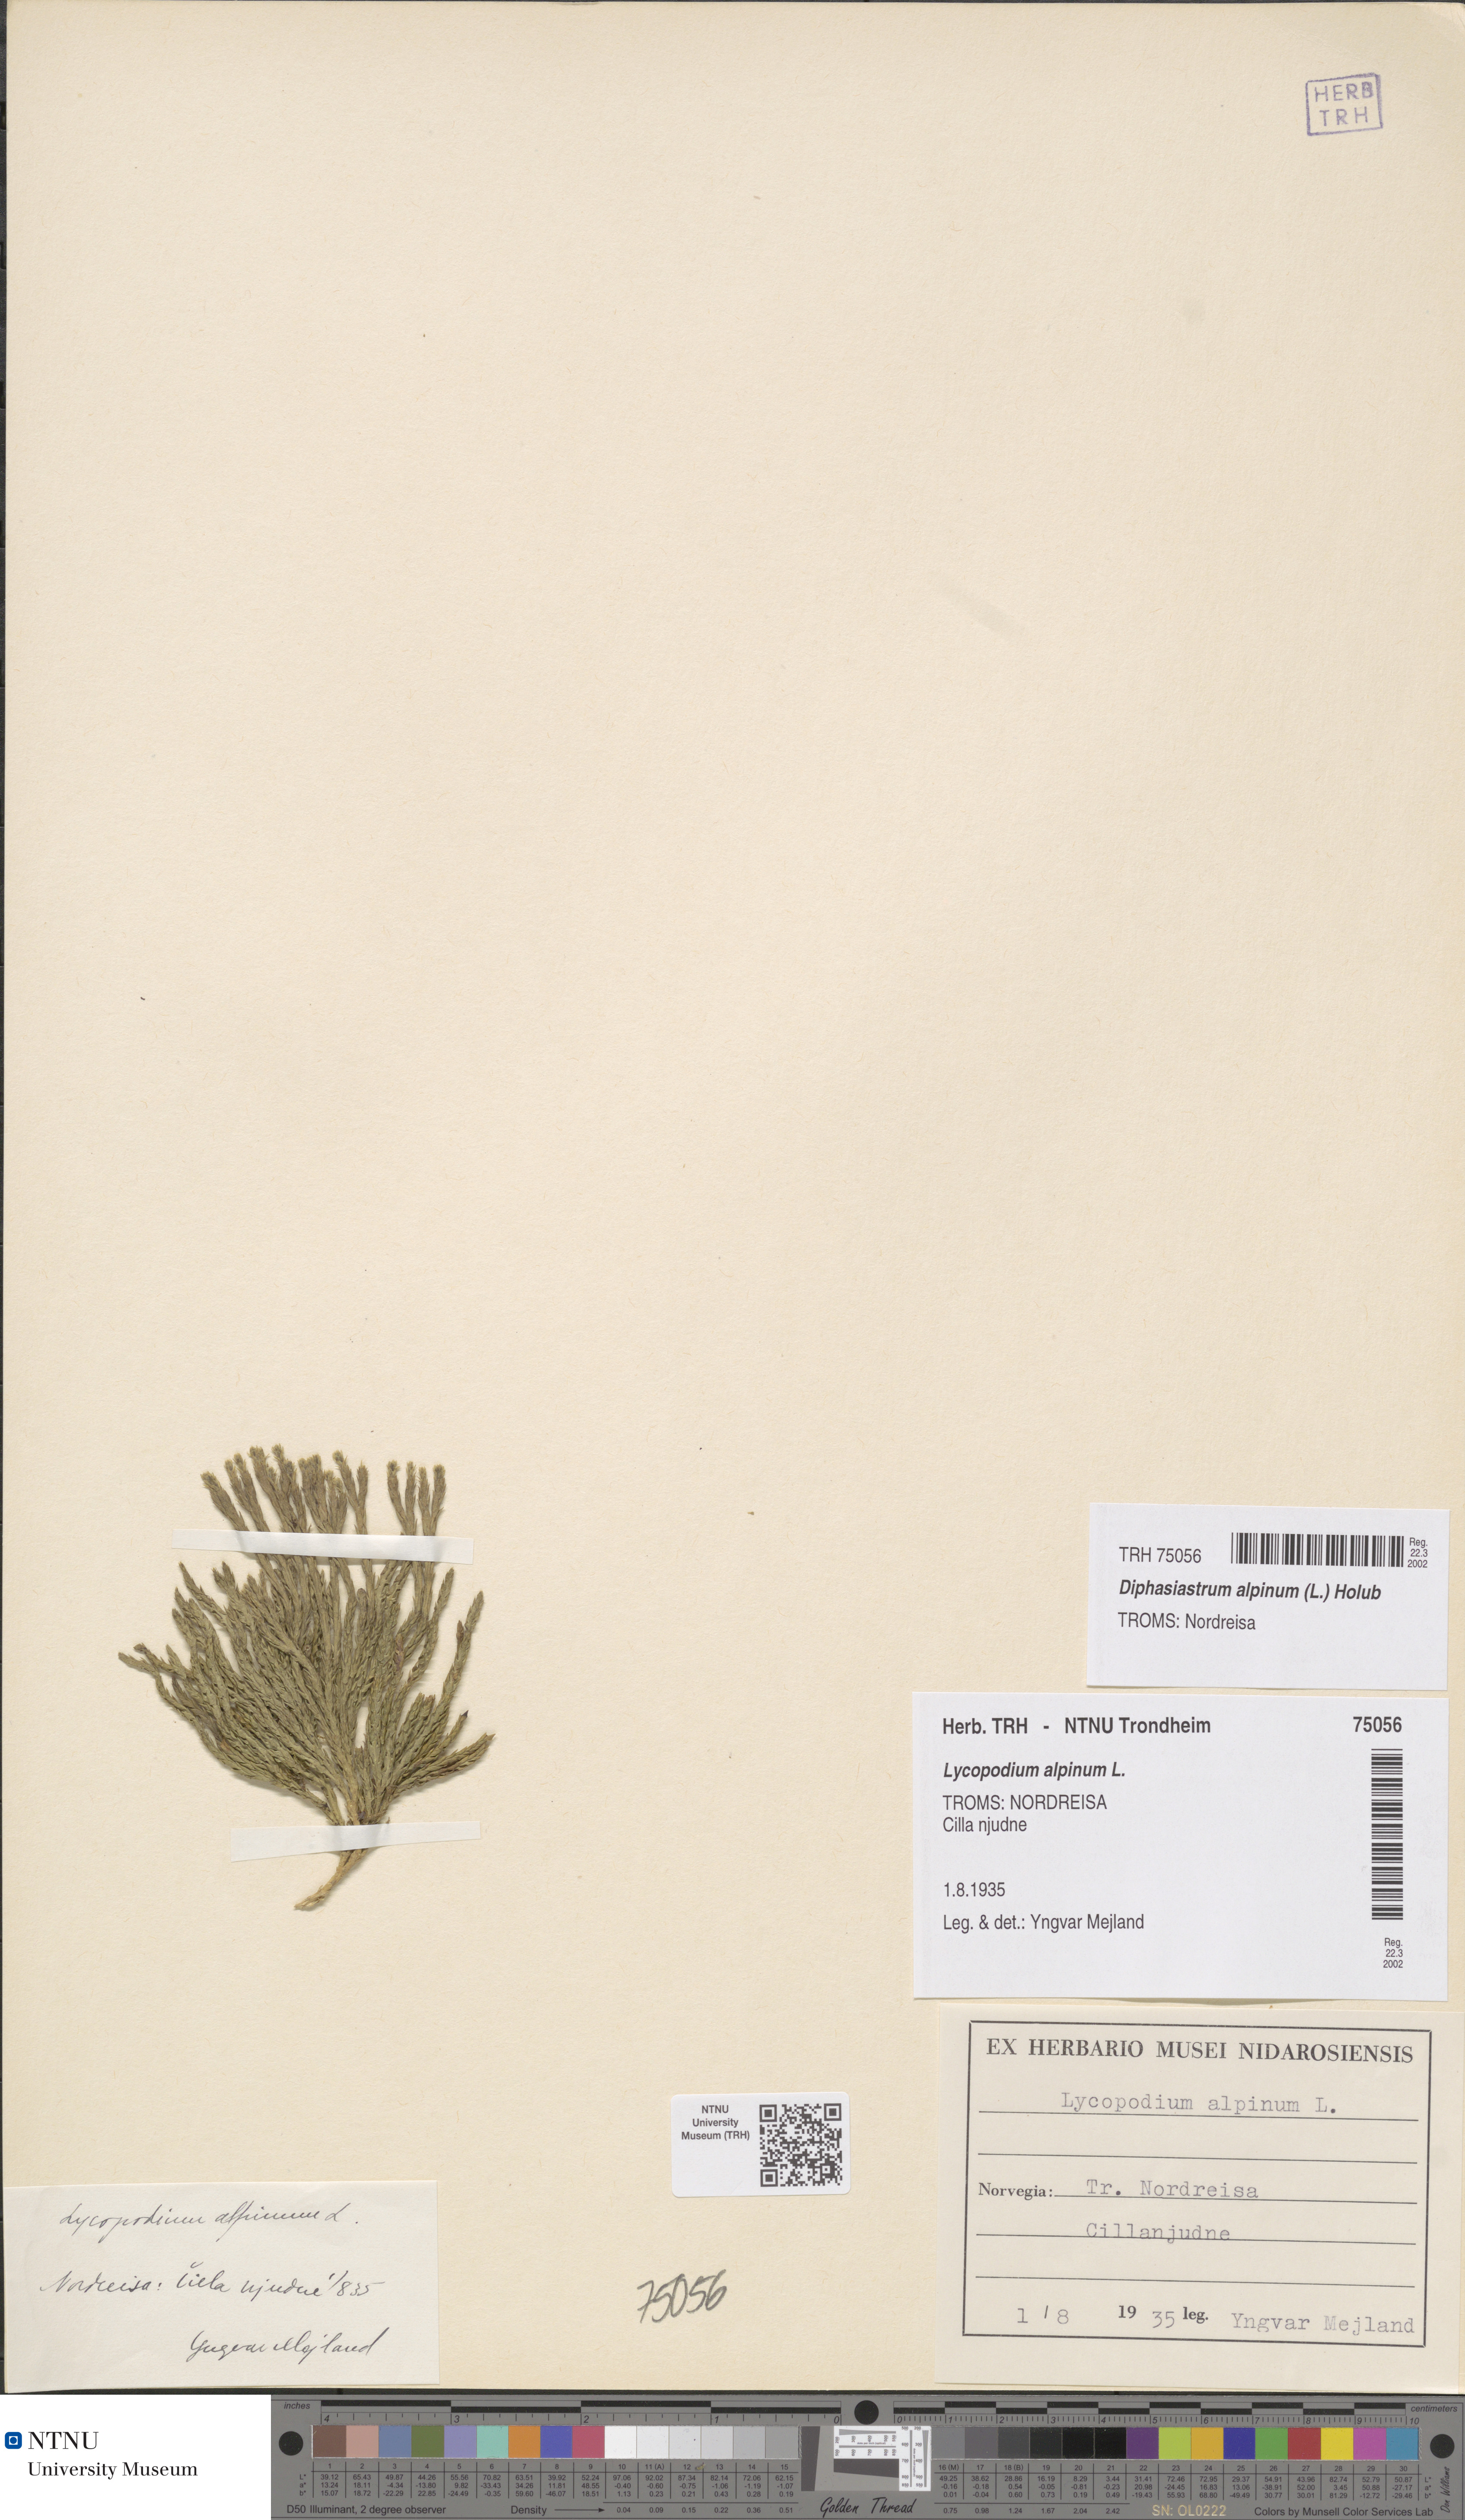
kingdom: Plantae
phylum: Tracheophyta
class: Lycopodiopsida
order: Lycopodiales
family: Lycopodiaceae
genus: Diphasiastrum
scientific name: Diphasiastrum alpinum
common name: Alpine clubmoss
